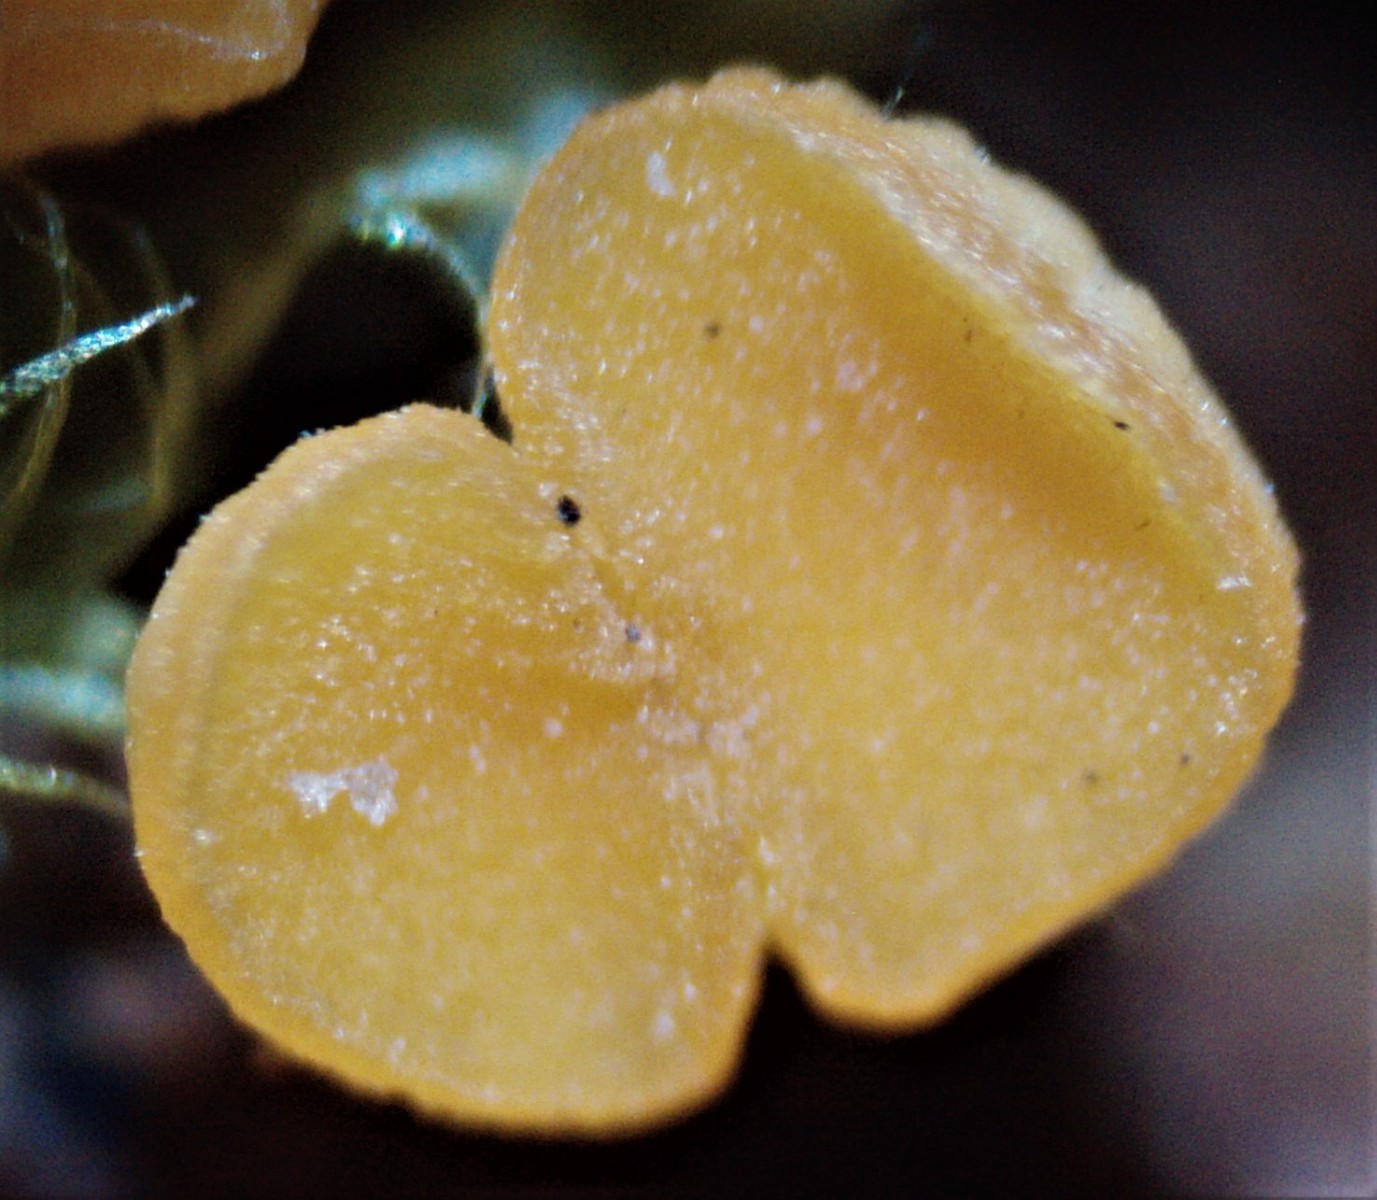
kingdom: Fungi
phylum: Ascomycota
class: Leotiomycetes
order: Helotiales
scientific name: Helotiales
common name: stilkskiveordenen
